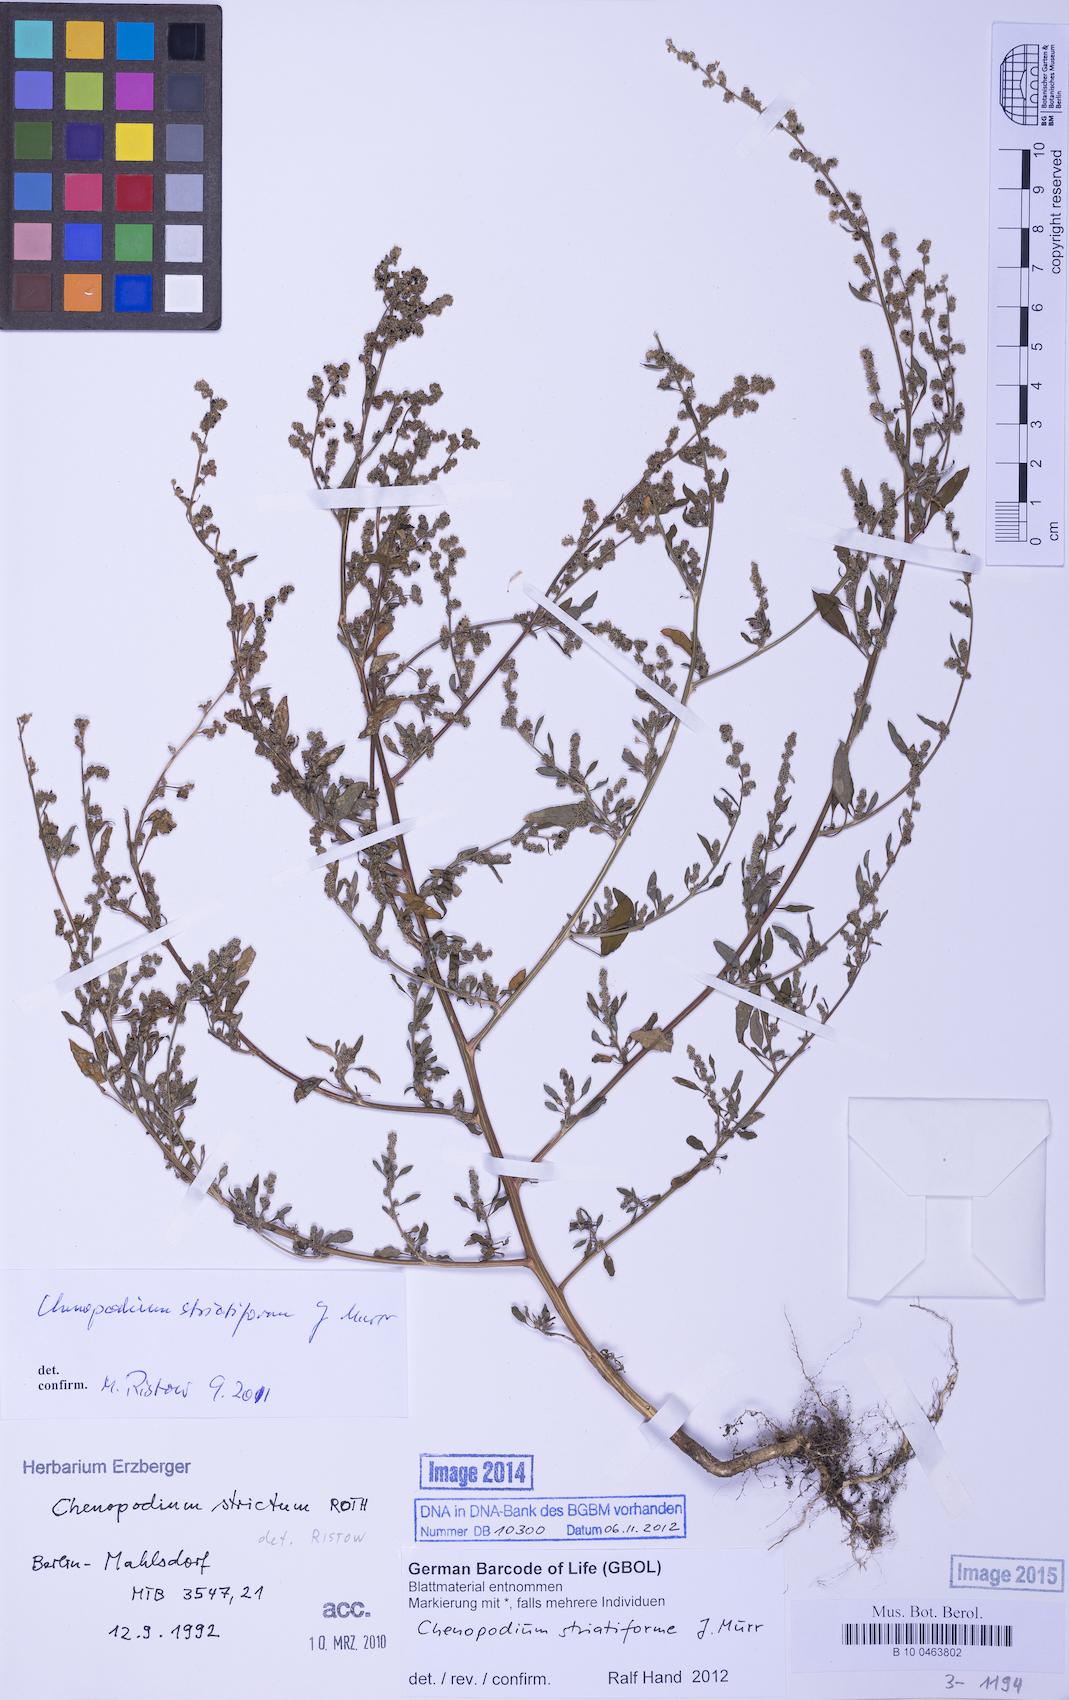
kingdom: Plantae
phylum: Tracheophyta
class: Magnoliopsida
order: Caryophyllales
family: Amaranthaceae
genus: Chenopodium
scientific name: Chenopodium striatiforme
